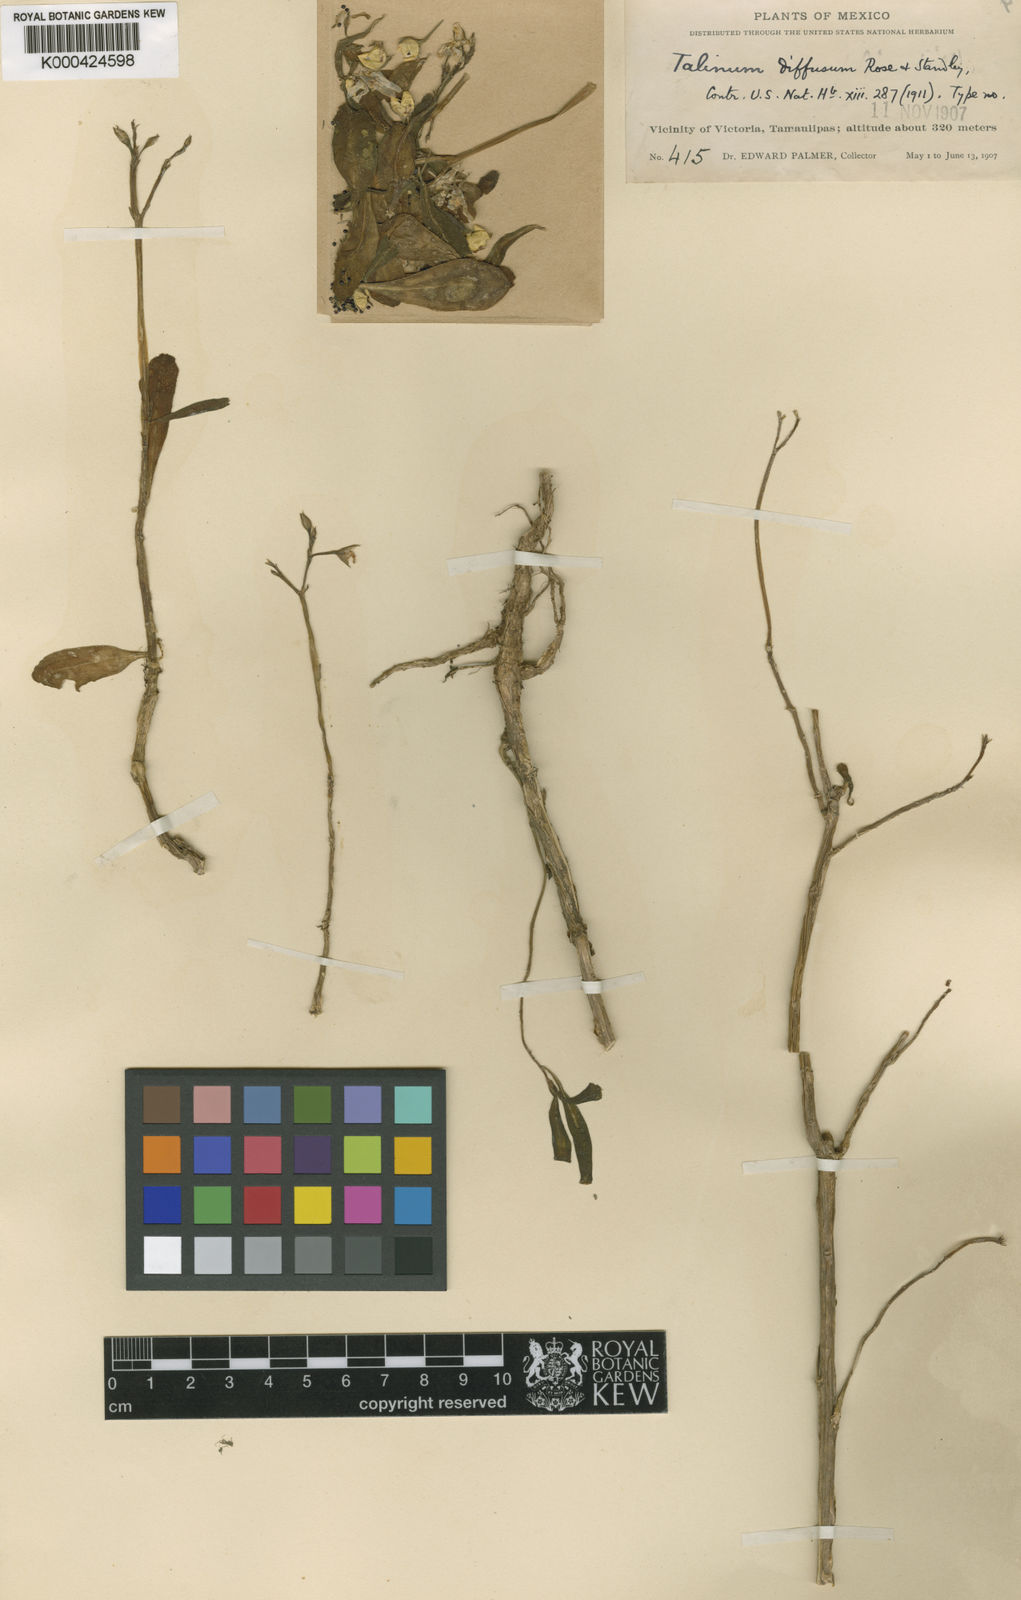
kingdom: Plantae
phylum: Tracheophyta
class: Magnoliopsida
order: Caryophyllales
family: Talinaceae
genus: Talinum
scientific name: Talinum fruticosum
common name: Verdolaga-francesa
